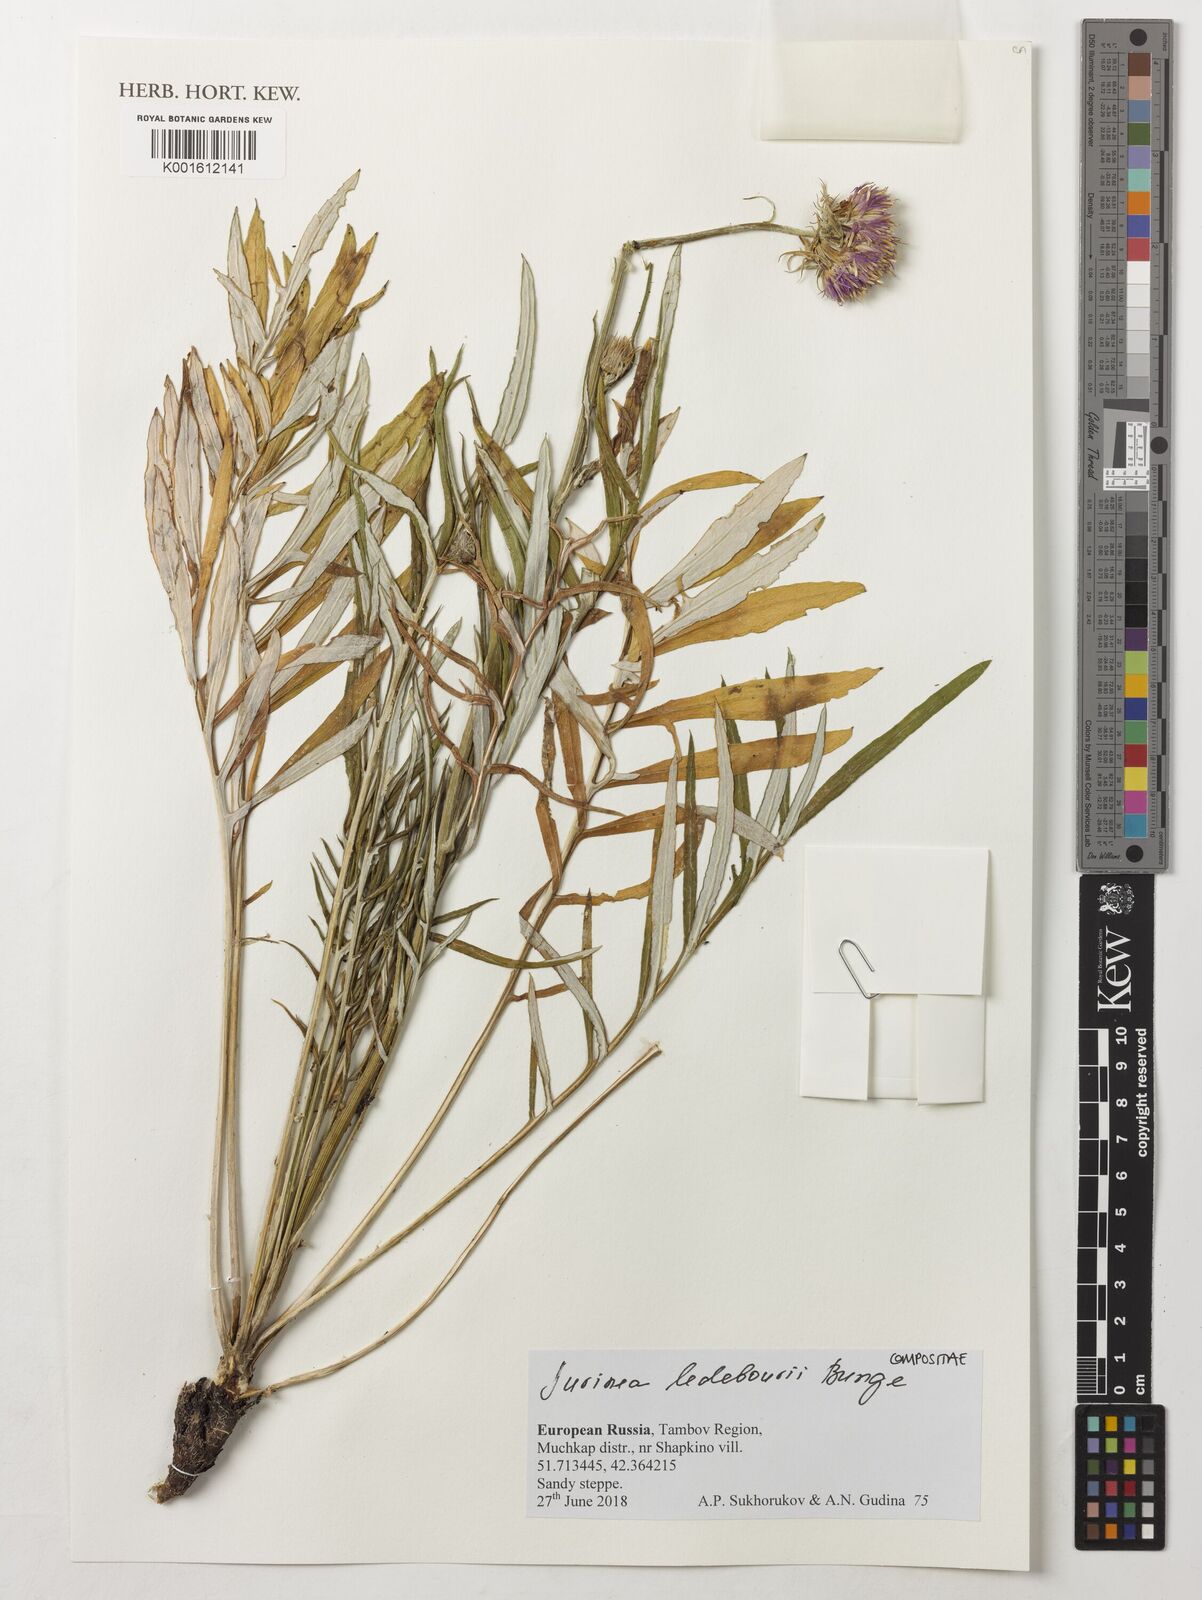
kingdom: Plantae
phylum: Tracheophyta
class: Magnoliopsida
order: Asterales
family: Asteraceae
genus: Jurinea
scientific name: Jurinea ledebourii
